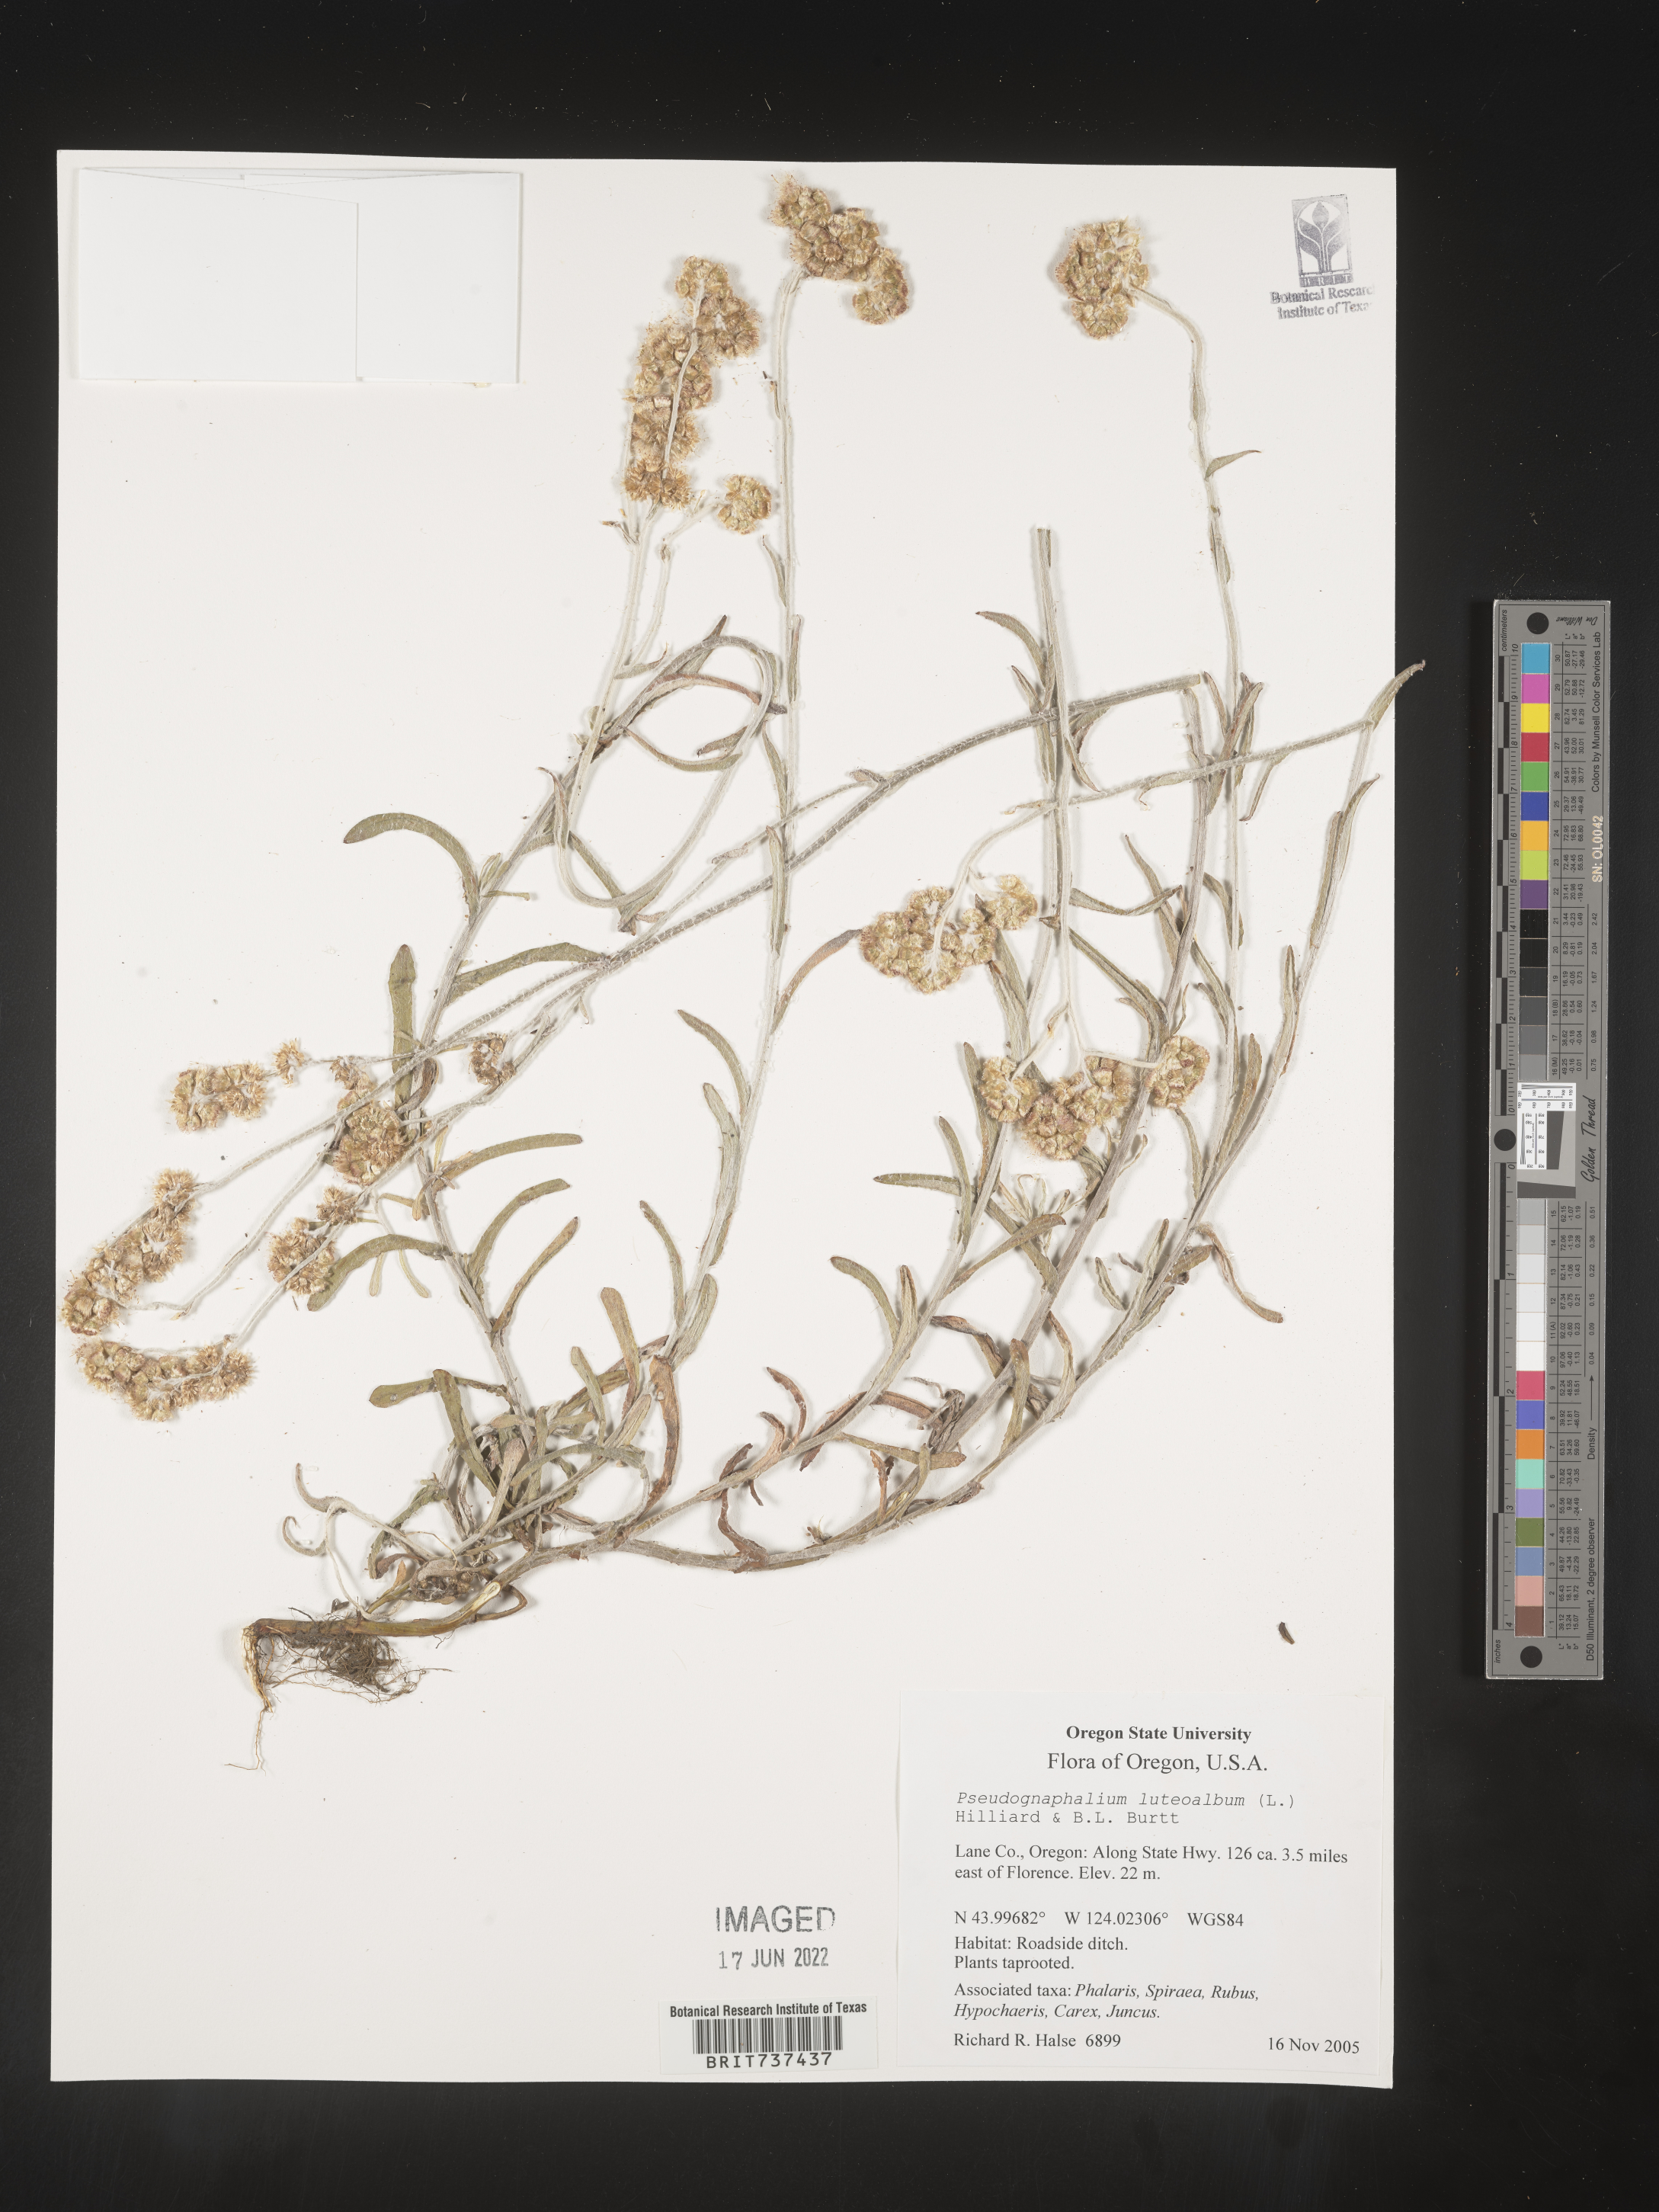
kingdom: Plantae
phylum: Tracheophyta
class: Magnoliopsida
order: Asterales
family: Asteraceae
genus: Helichrysum
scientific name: Helichrysum luteoalbum
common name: Daisy
